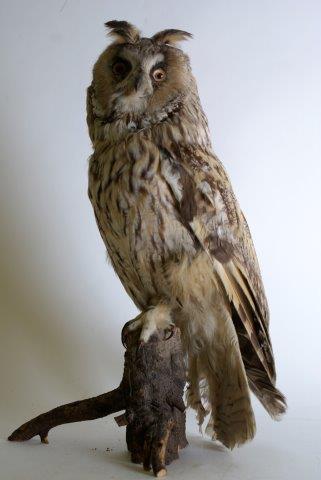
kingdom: Animalia
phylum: Chordata
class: Aves
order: Strigiformes
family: Strigidae
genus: Asio
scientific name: Asio otus
